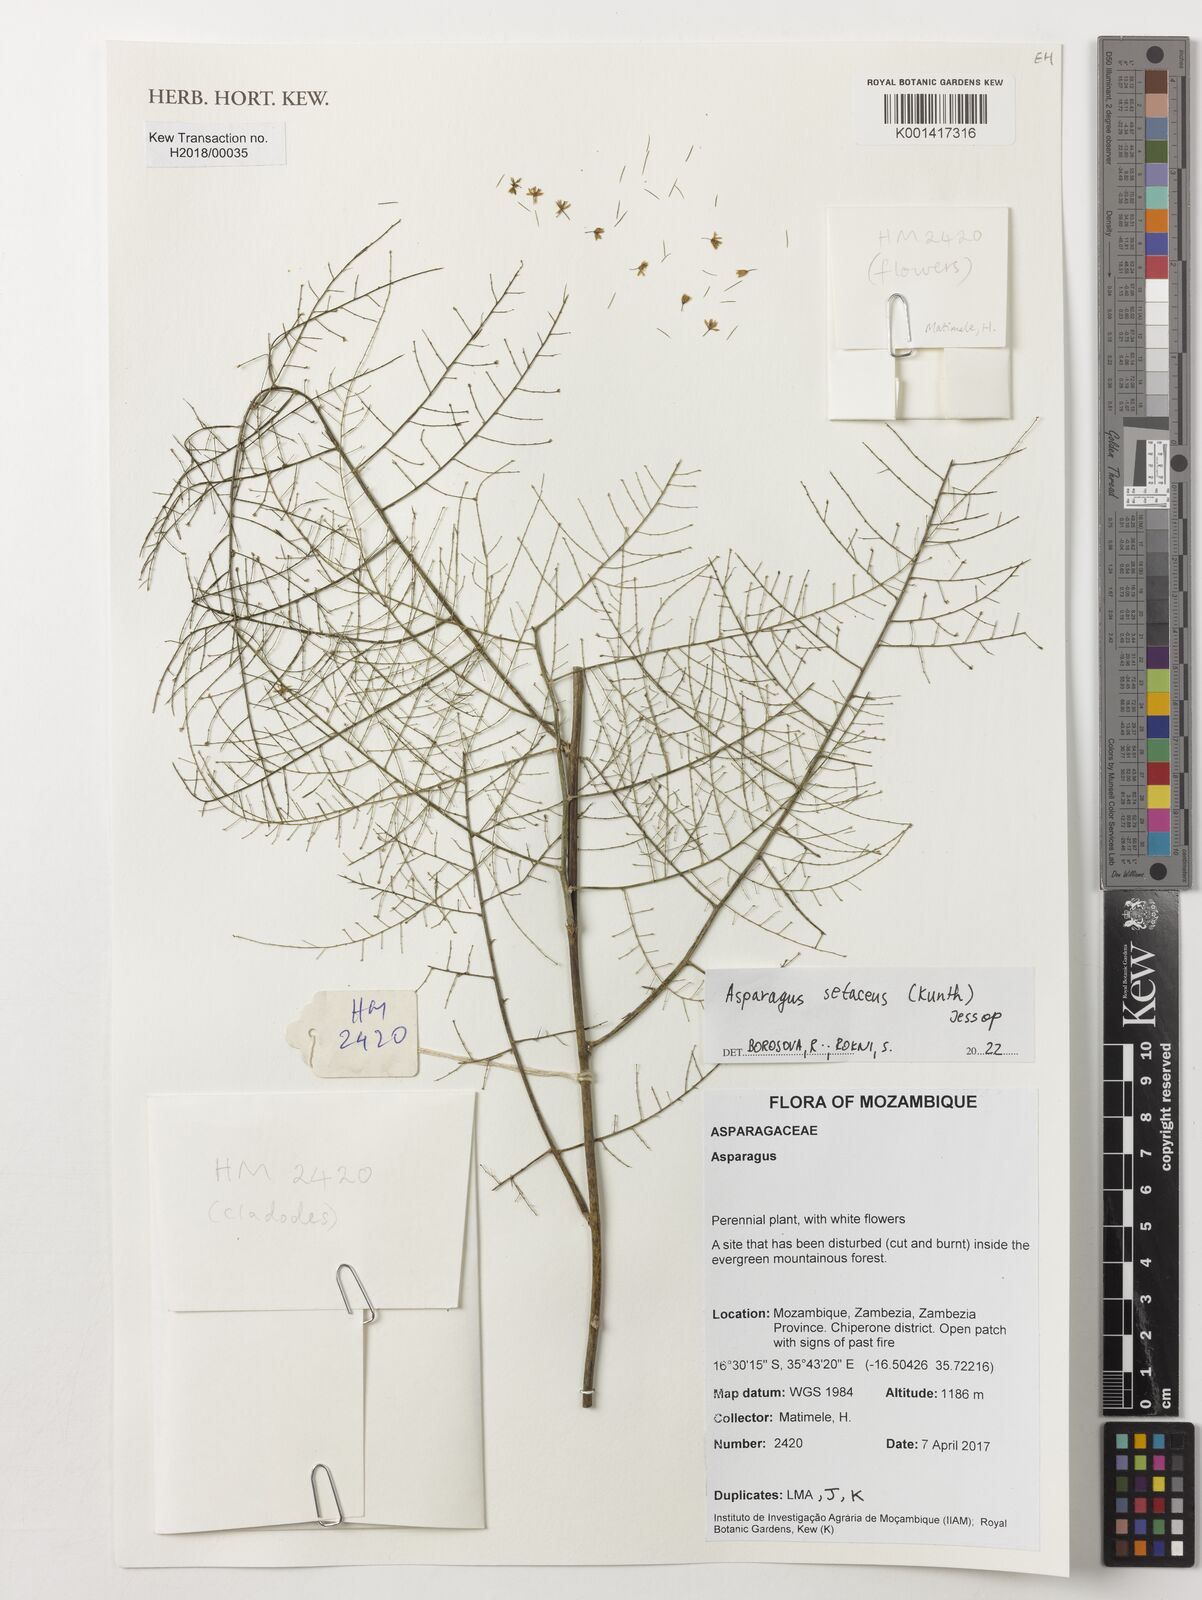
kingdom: Plantae
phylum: Tracheophyta
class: Liliopsida
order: Asparagales
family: Asparagaceae
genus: Asparagus
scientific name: Asparagus setaceus
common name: Common asparagus fern
